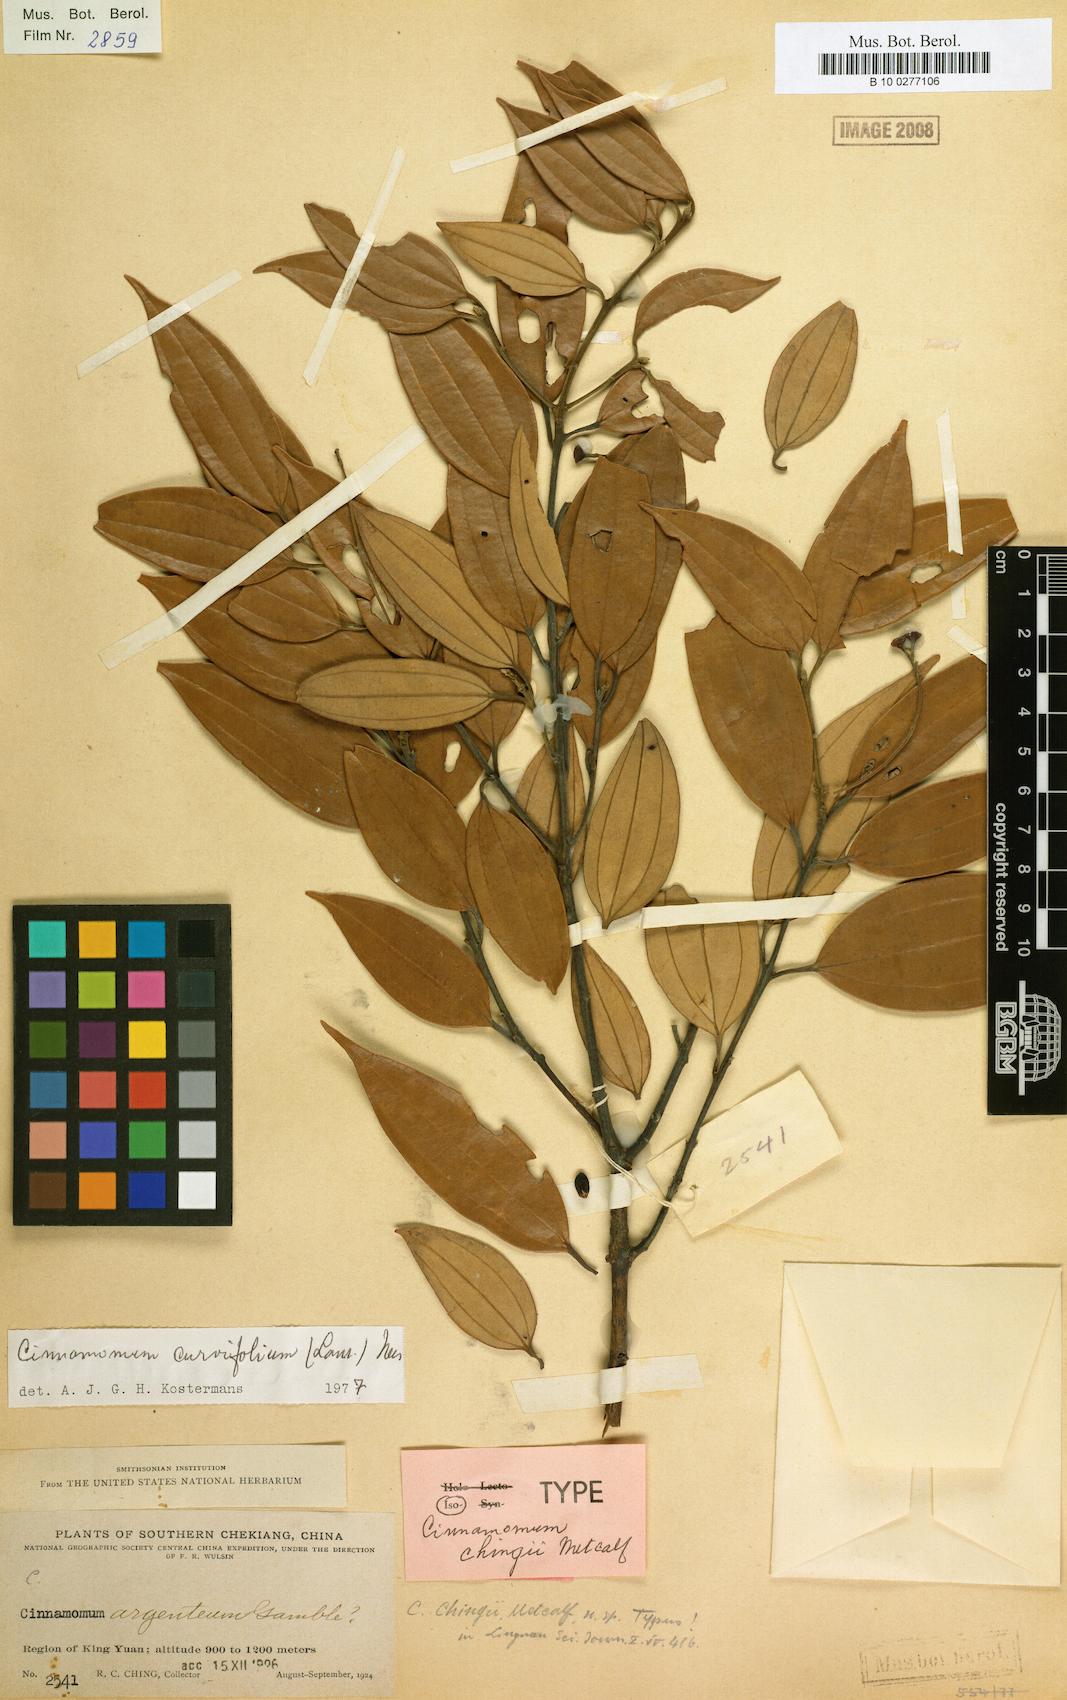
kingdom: Plantae
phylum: Tracheophyta
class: Magnoliopsida
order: Laurales
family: Lauraceae
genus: Cinnamomum
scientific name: Cinnamomum curvifolium
